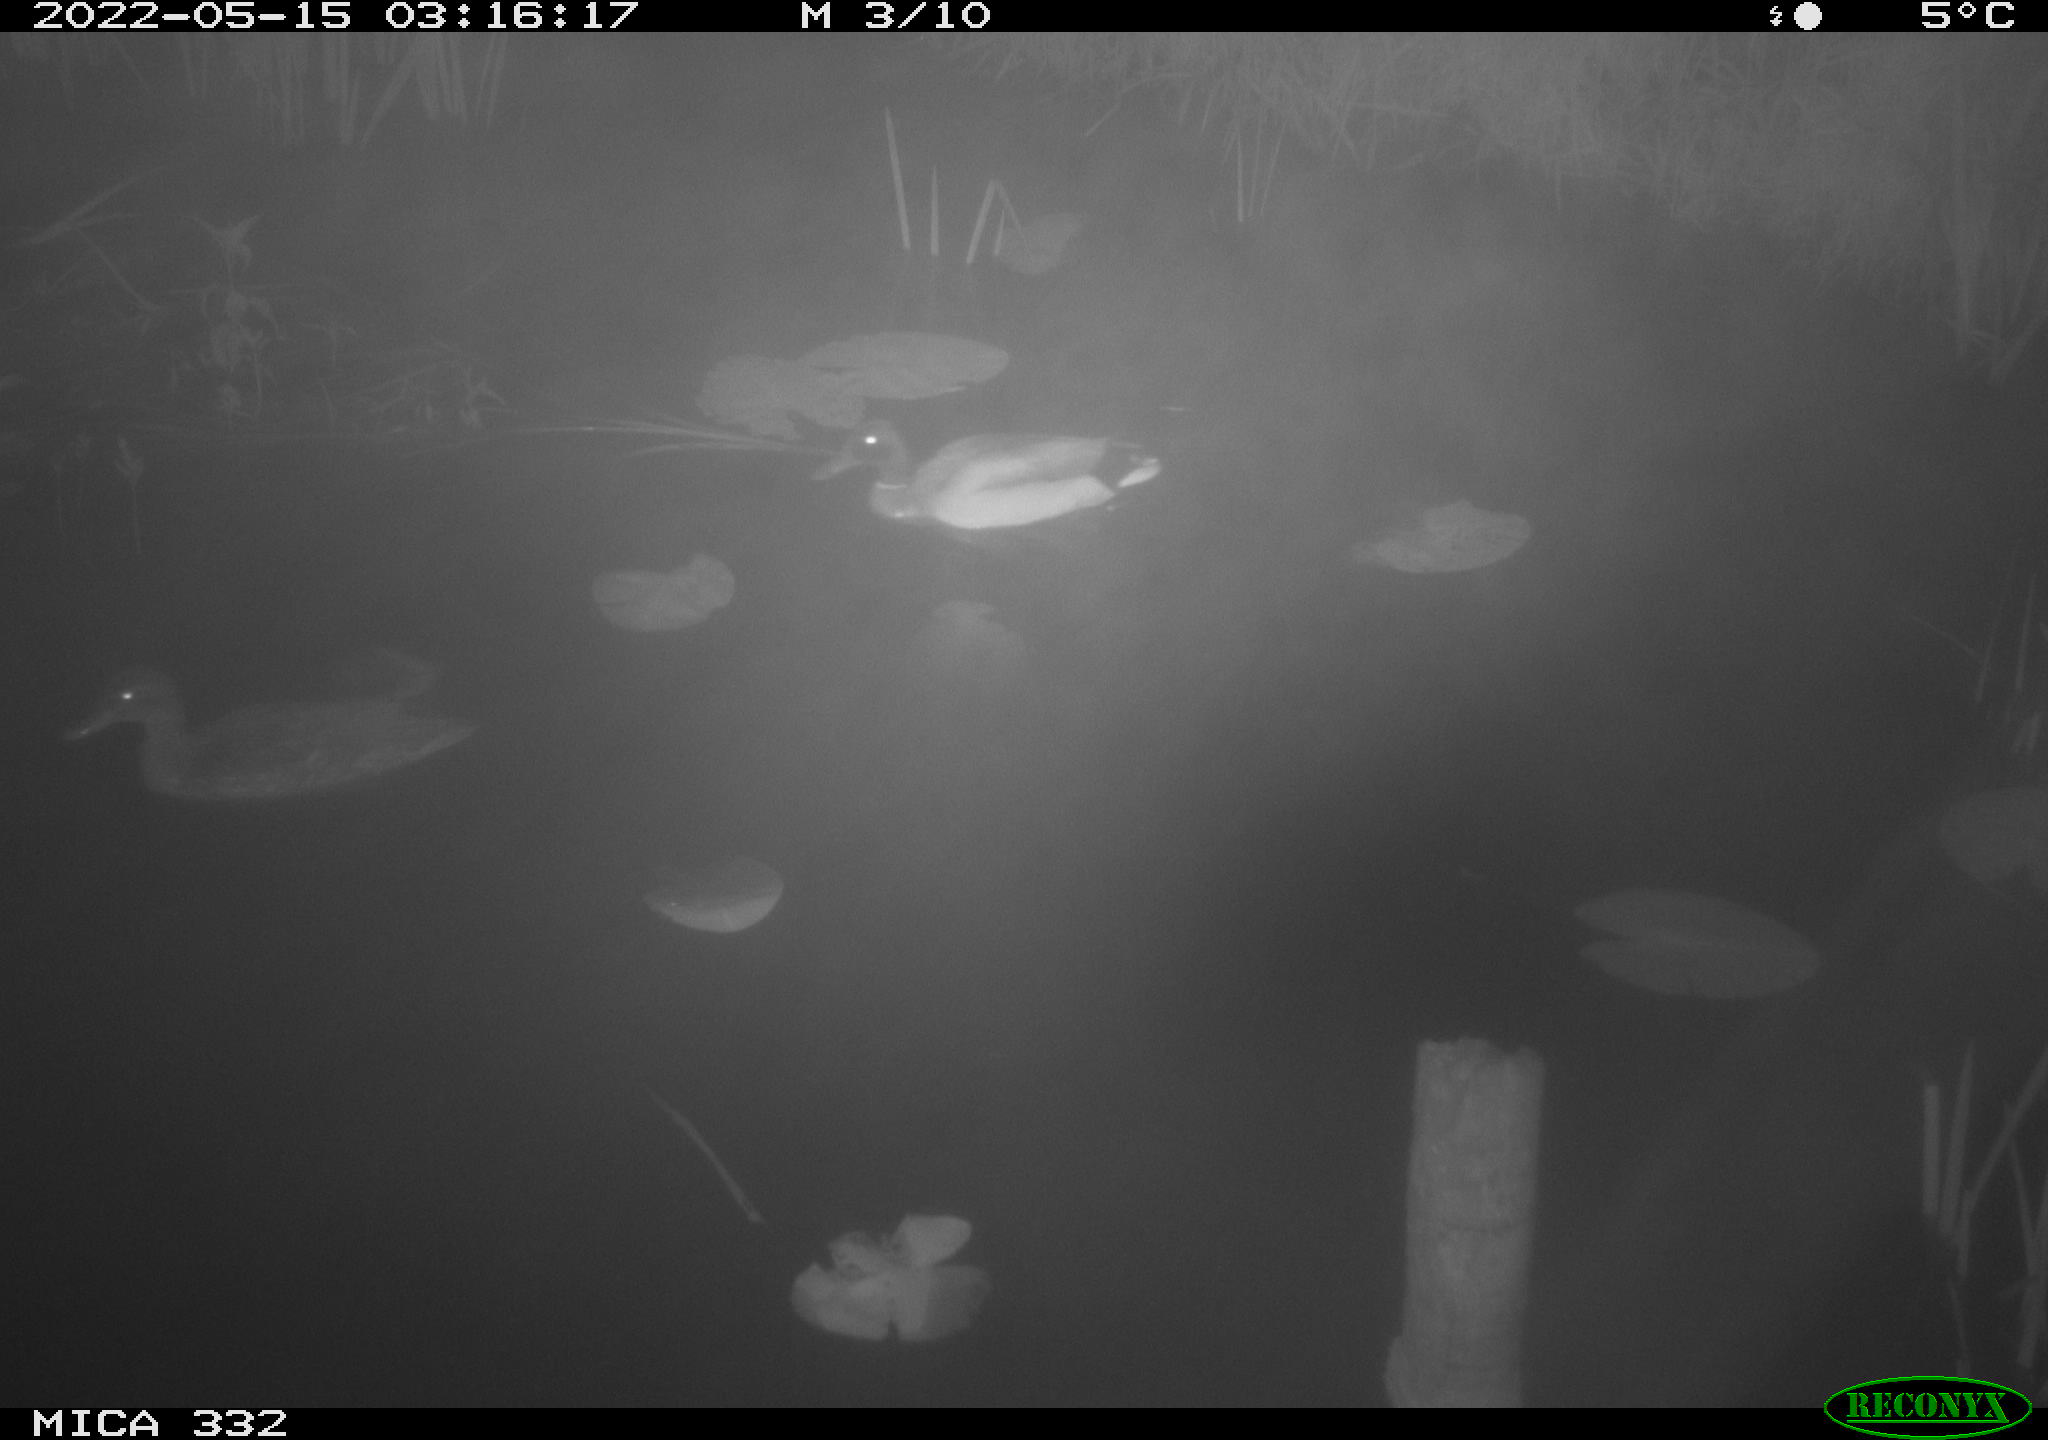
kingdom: Animalia
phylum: Chordata
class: Aves
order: Anseriformes
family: Anatidae
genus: Anas
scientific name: Anas platyrhynchos
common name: Mallard
